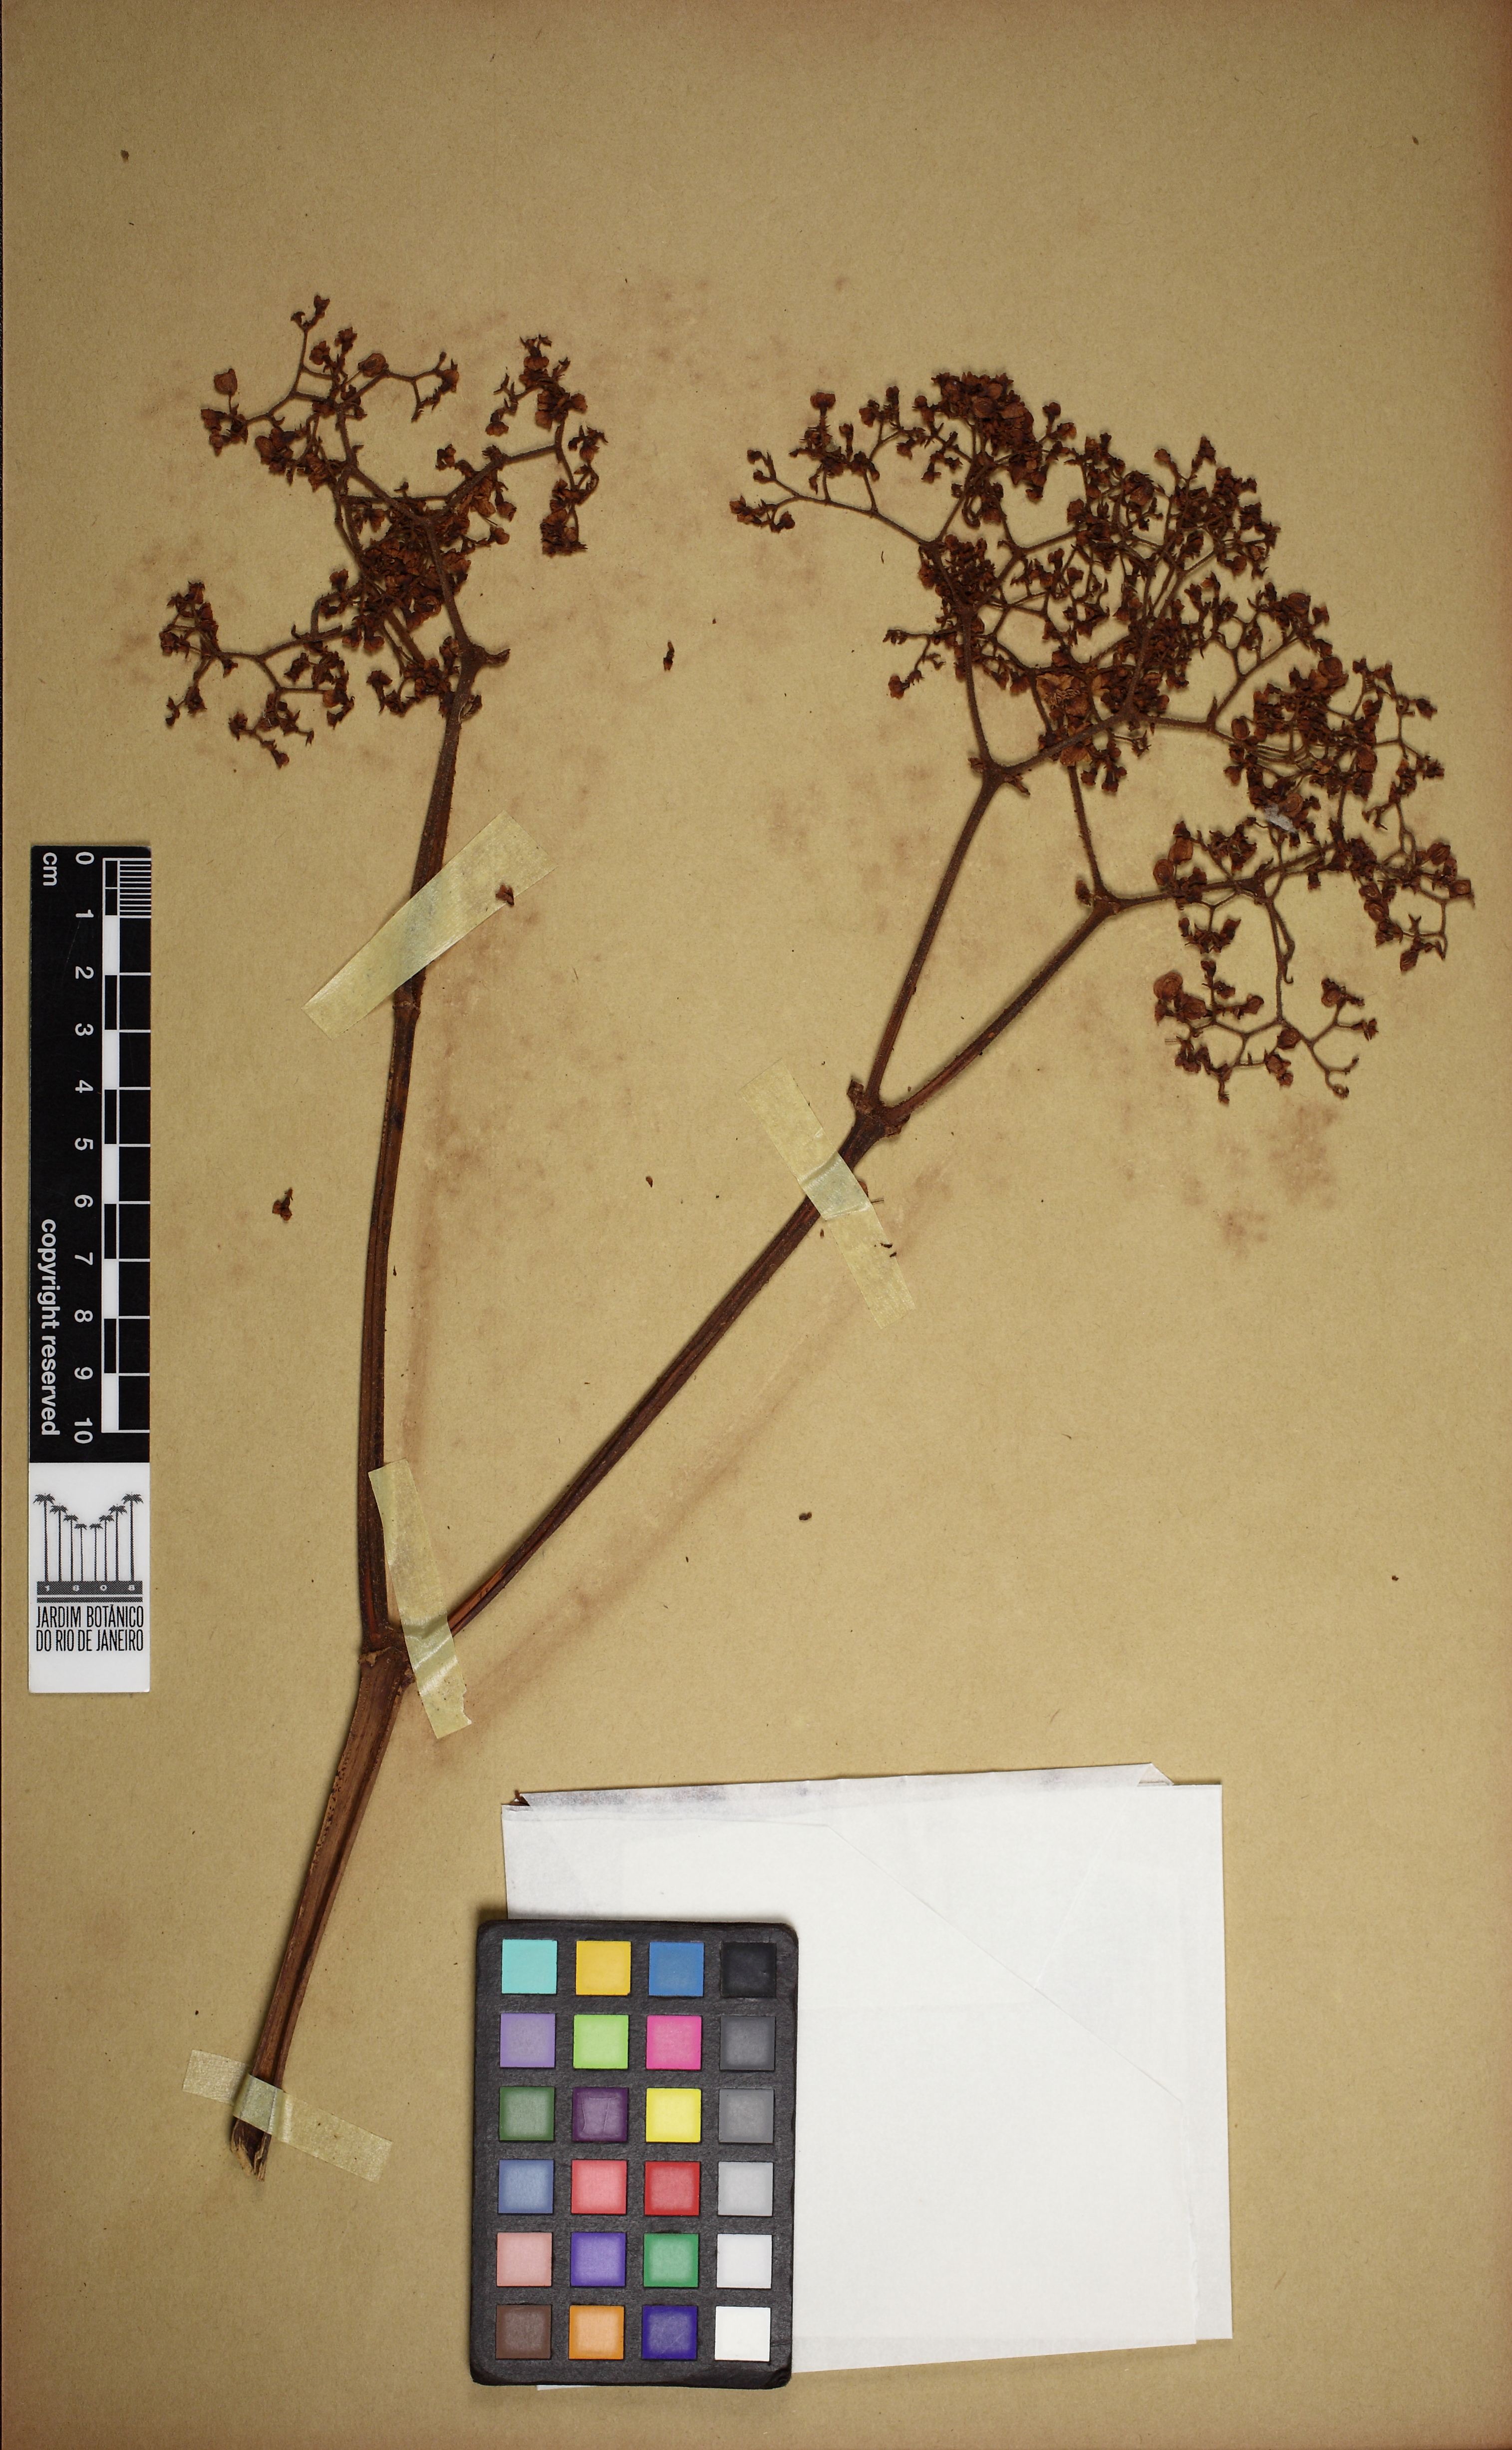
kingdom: Plantae
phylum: Tracheophyta
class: Magnoliopsida
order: Cucurbitales
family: Begoniaceae
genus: Begonia
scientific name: Begonia semidigitata
